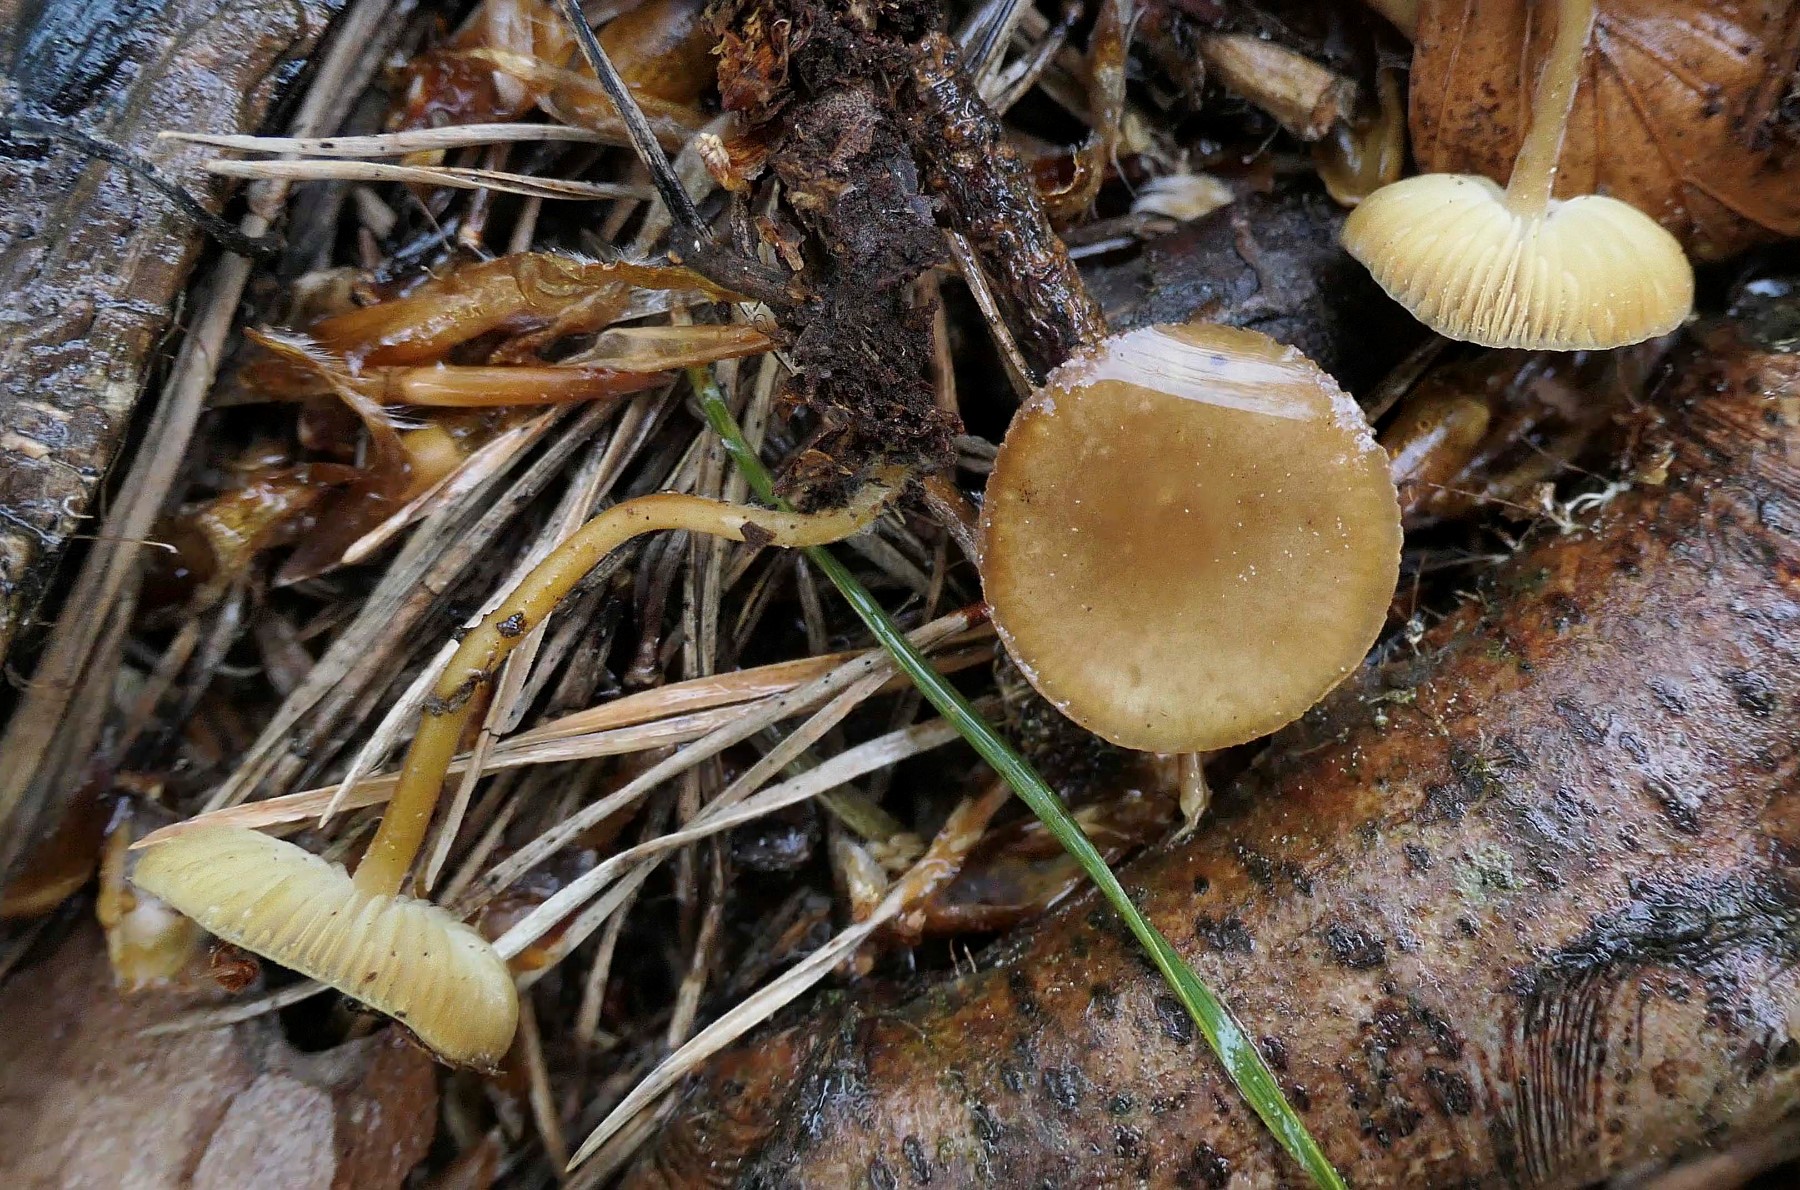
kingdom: Fungi
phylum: Basidiomycota
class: Agaricomycetes
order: Agaricales
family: Physalacriaceae
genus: Strobilurus
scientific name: Strobilurus stephanocystis
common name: fyrre-koglehat
